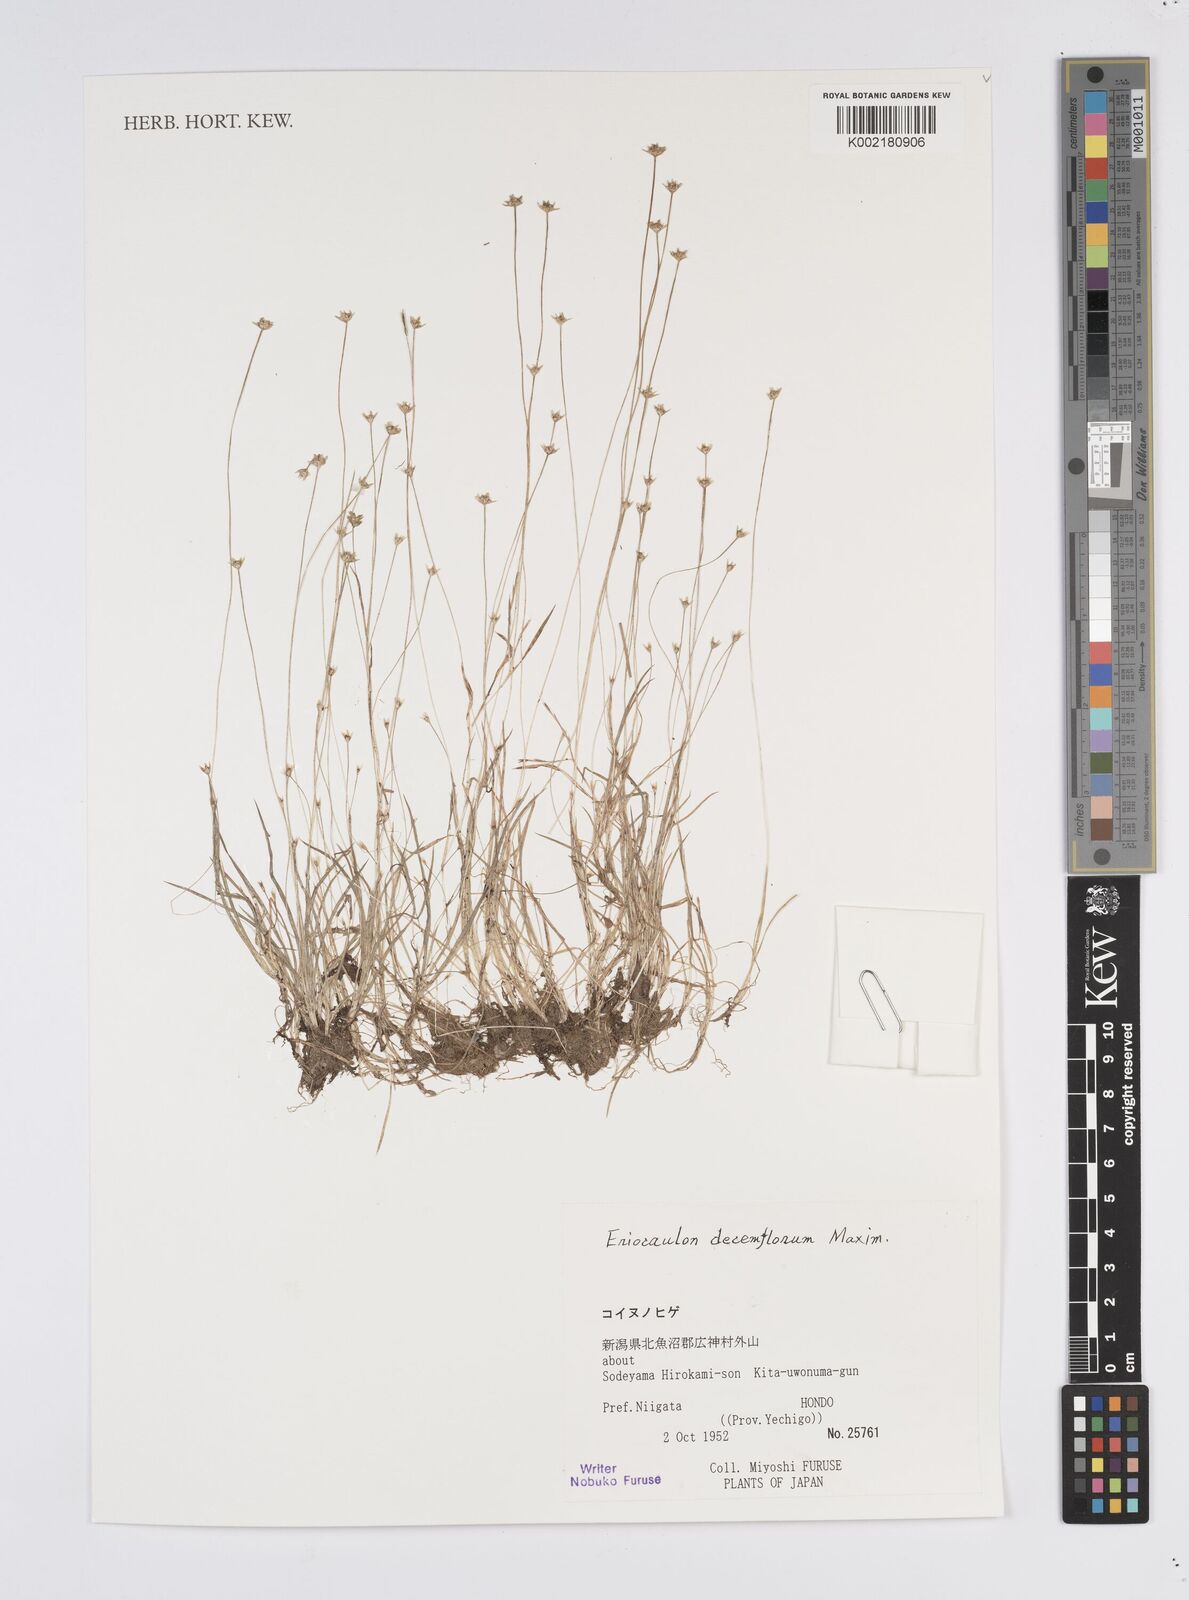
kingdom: Plantae
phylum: Tracheophyta
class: Liliopsida
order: Poales
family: Eriocaulaceae
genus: Eriocaulon
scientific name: Eriocaulon decemflorum
